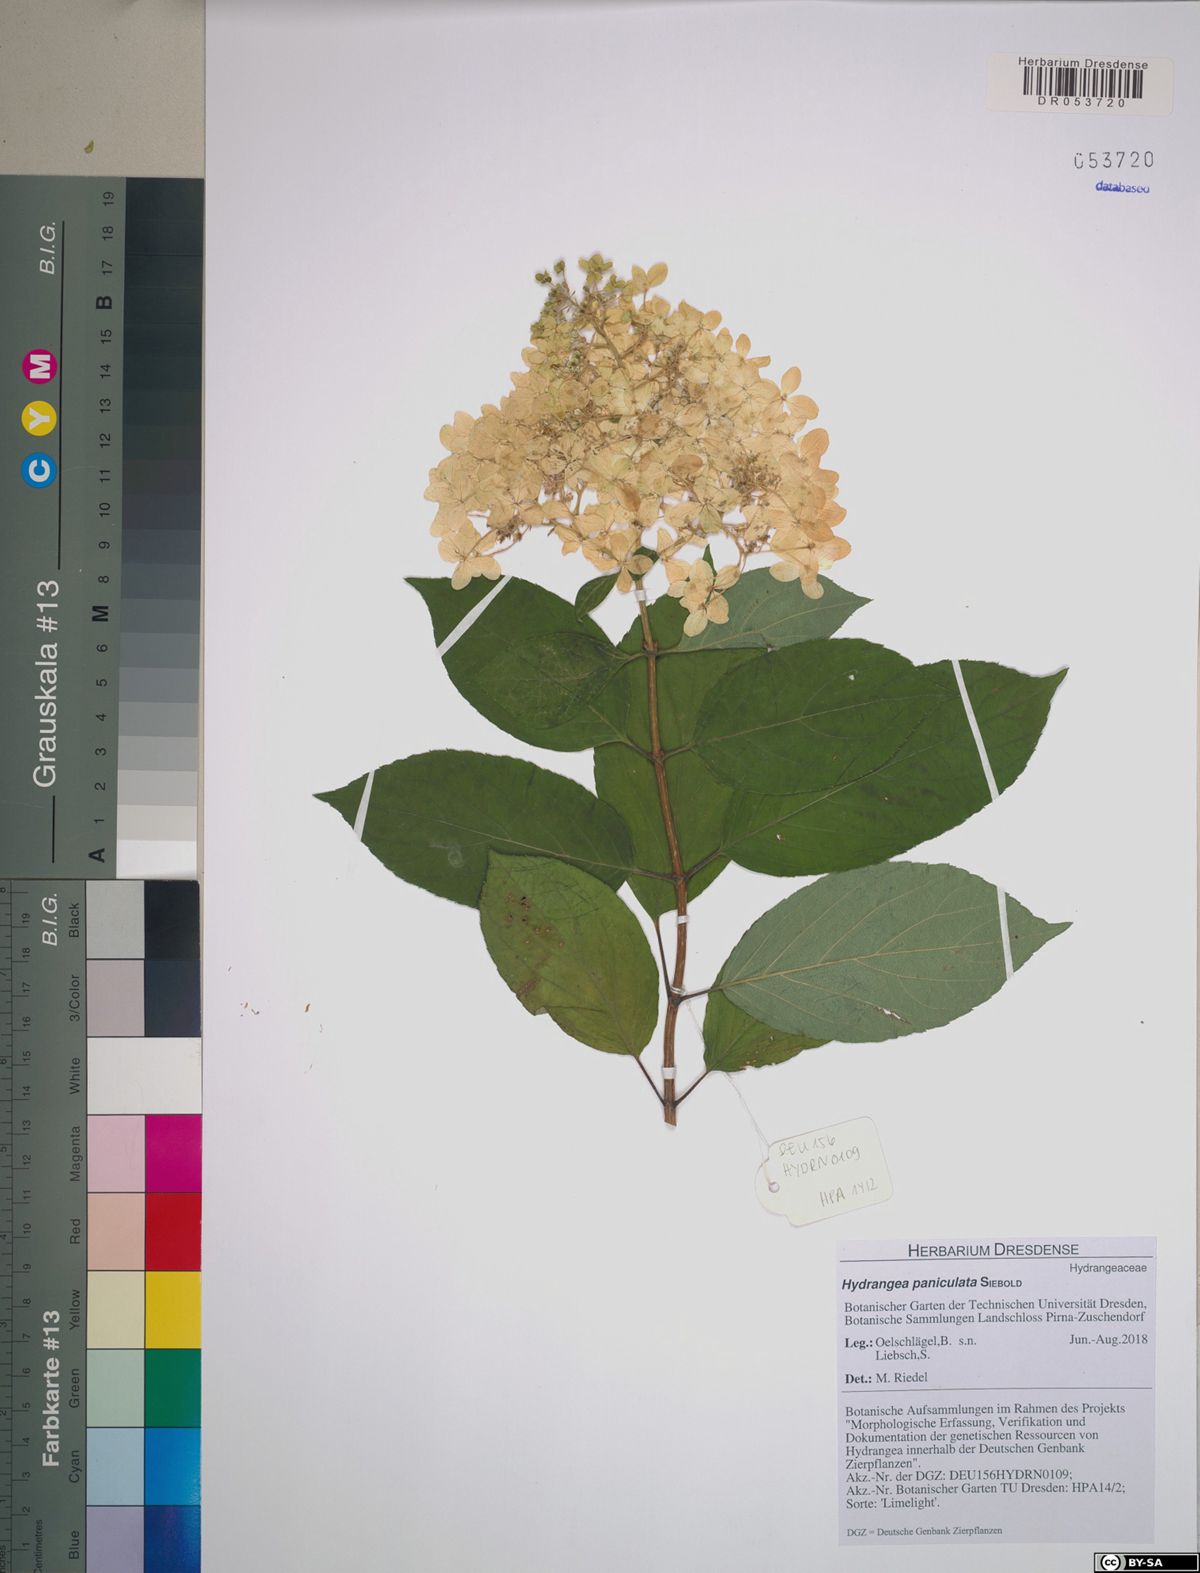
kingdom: Plantae
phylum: Tracheophyta
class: Magnoliopsida
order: Cornales
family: Hydrangeaceae
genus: Hydrangea
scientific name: Hydrangea paniculata
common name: Panicled hydrangea
